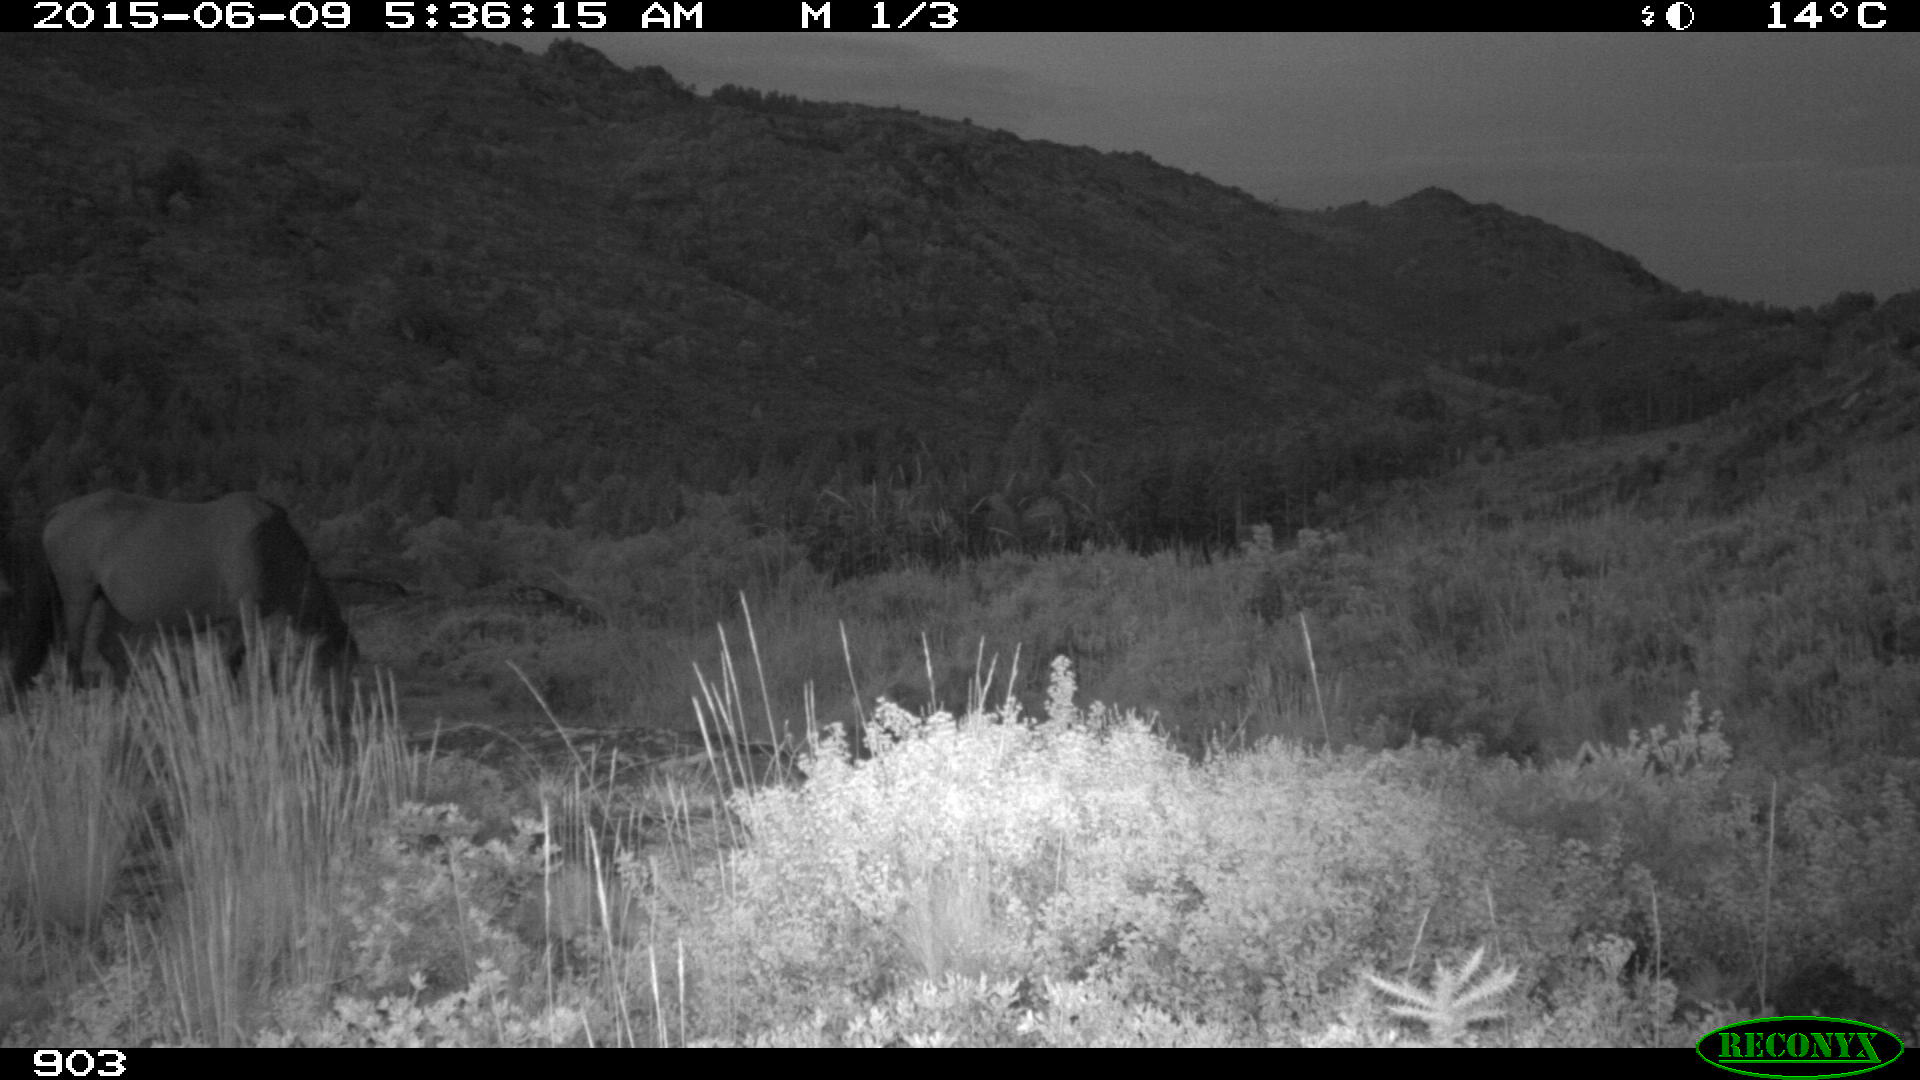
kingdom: Animalia
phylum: Chordata
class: Mammalia
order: Perissodactyla
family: Equidae
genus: Equus
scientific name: Equus caballus
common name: Horse
